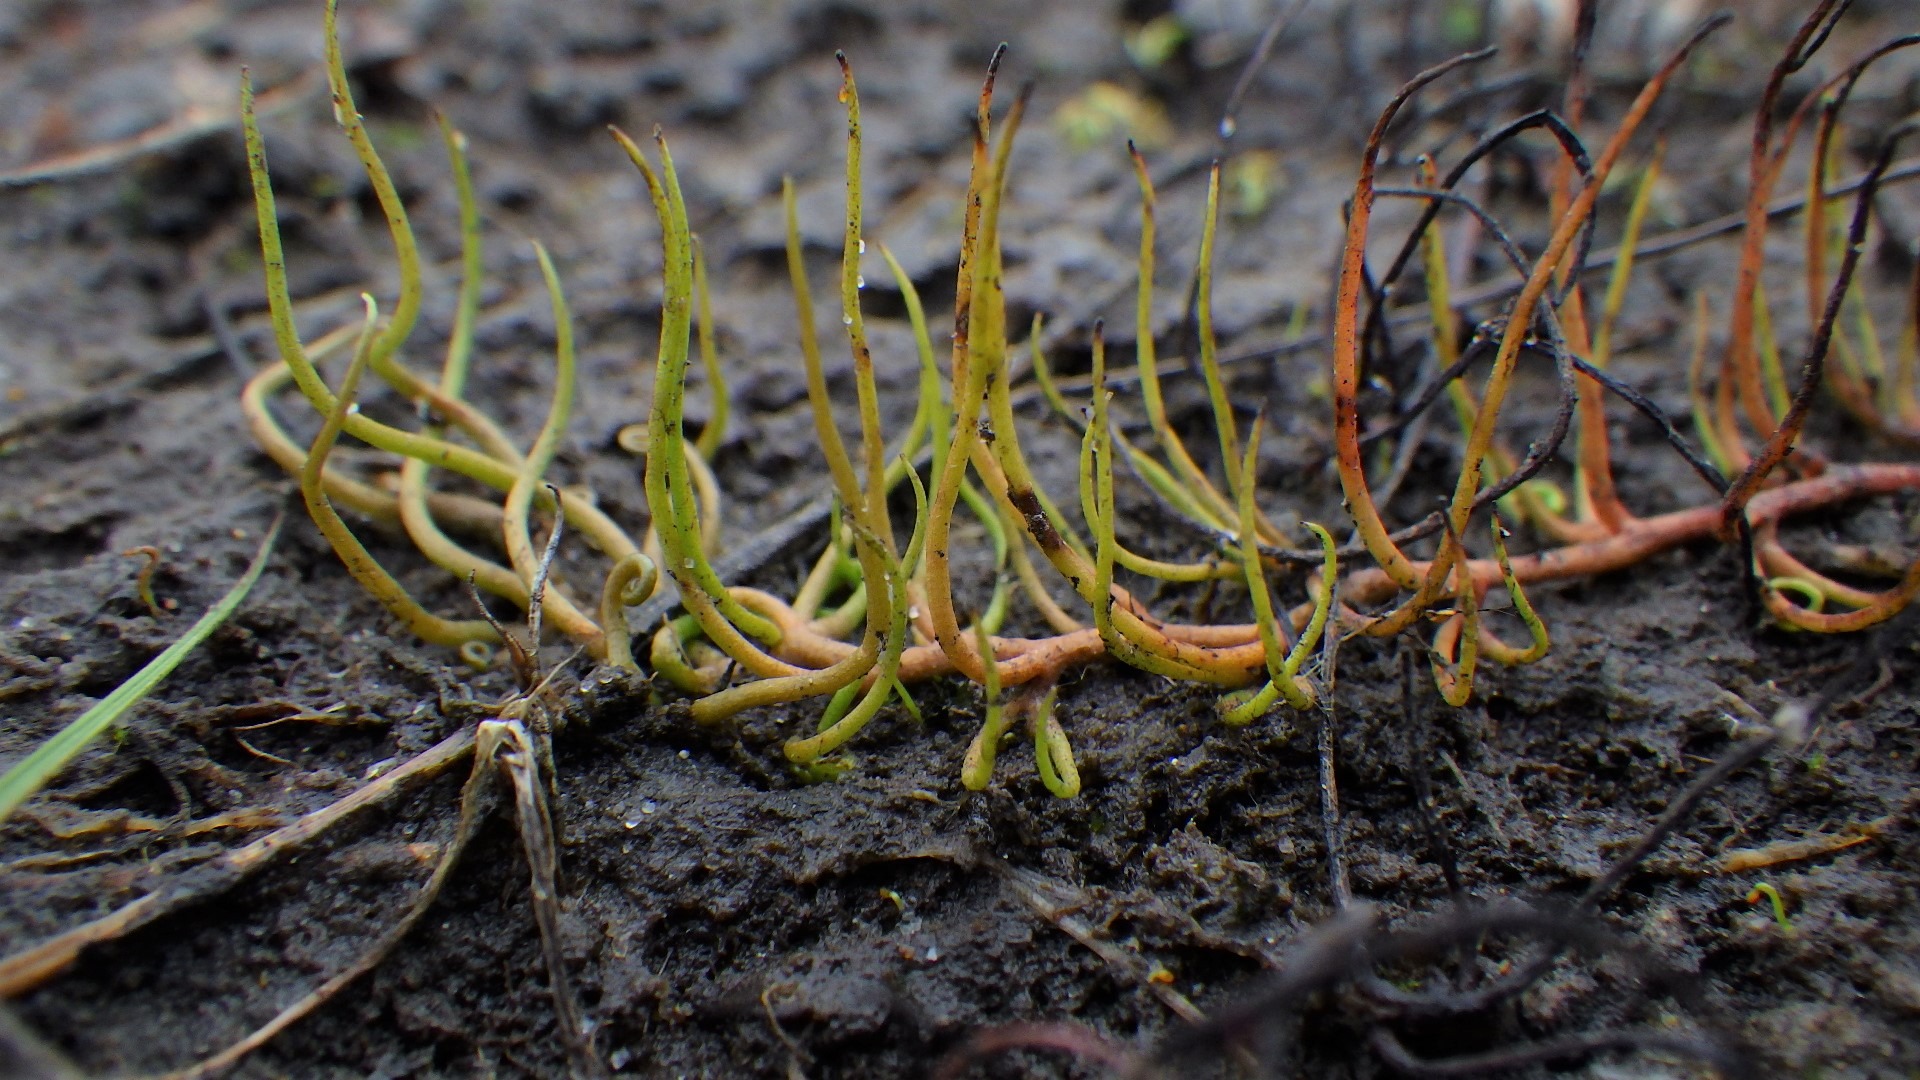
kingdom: Plantae
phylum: Tracheophyta
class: Polypodiopsida
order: Salviniales
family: Marsileaceae
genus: Pilularia
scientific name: Pilularia globulifera
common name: Pilledrager
